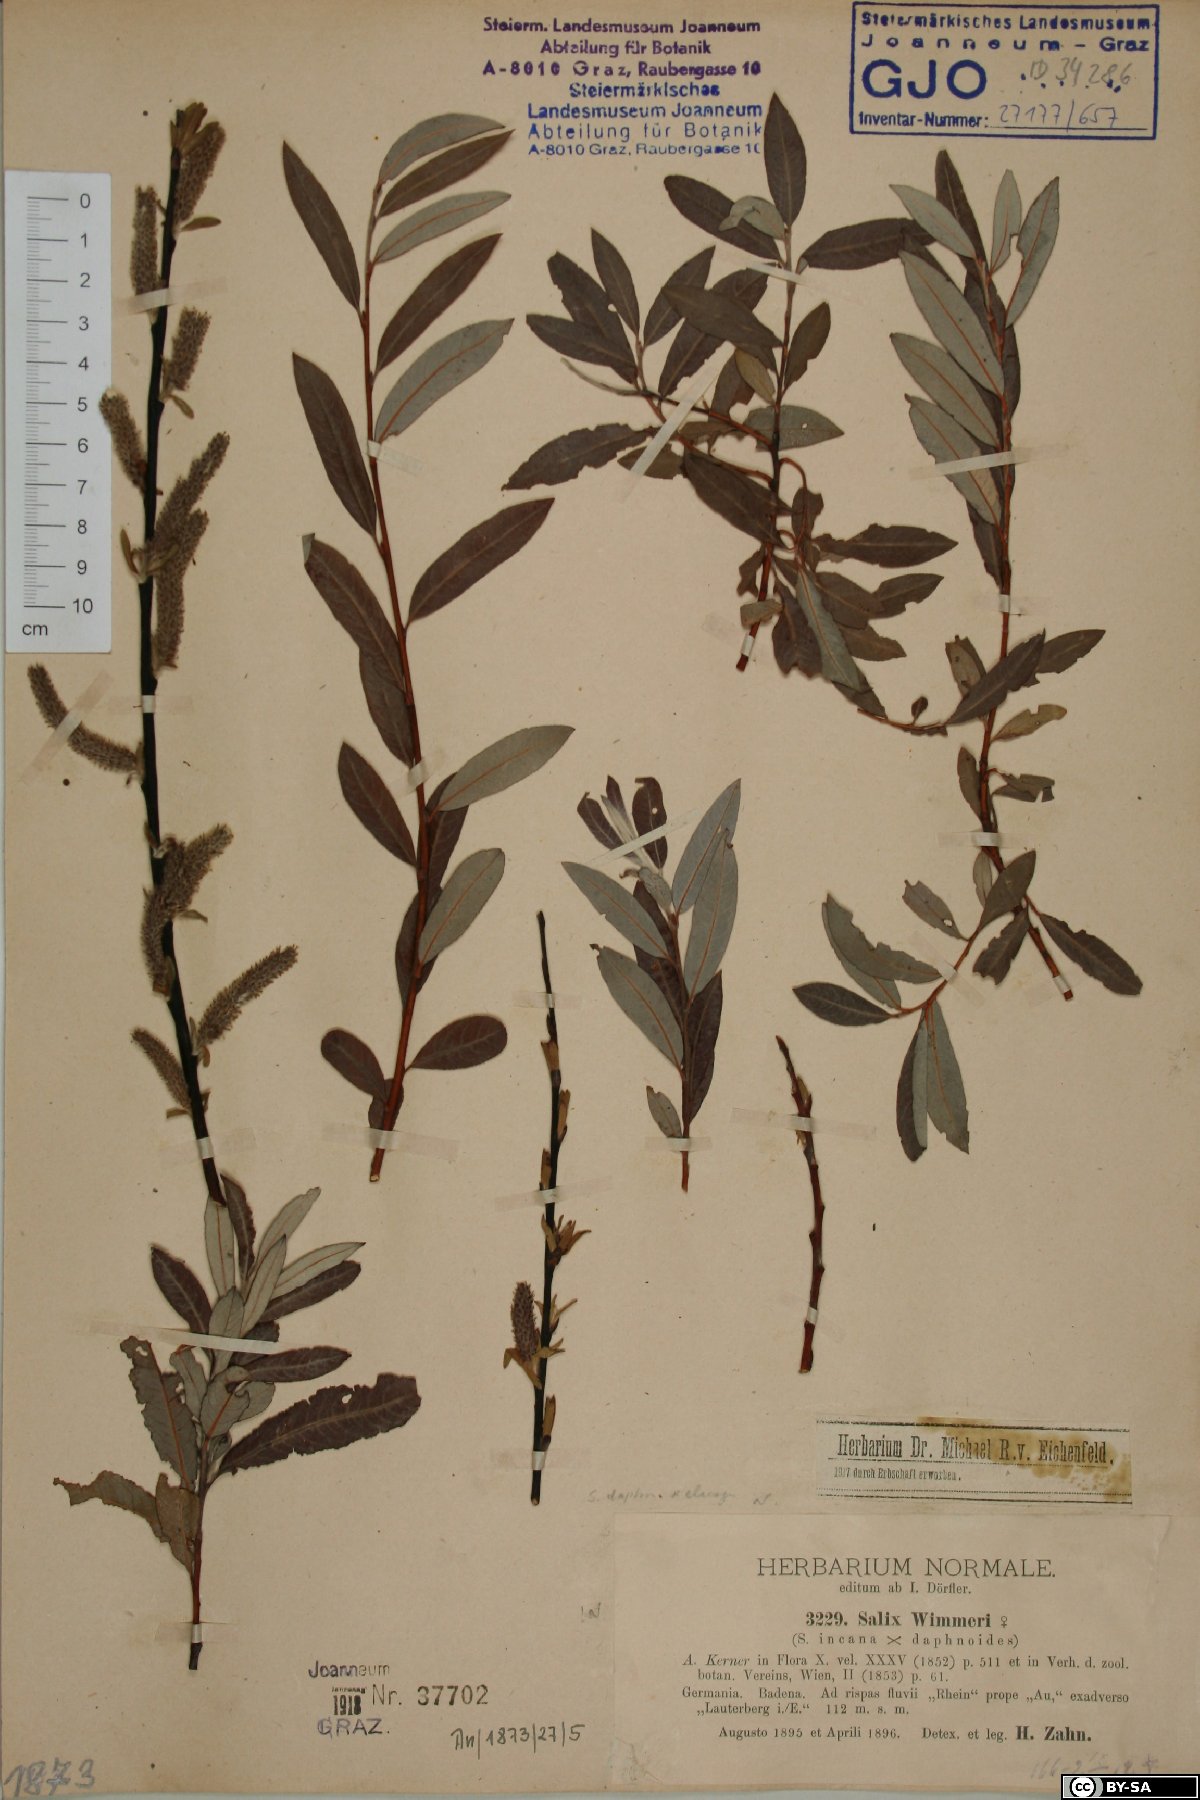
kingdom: Plantae
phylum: Tracheophyta
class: Magnoliopsida
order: Malpighiales
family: Salicaceae
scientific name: Salicaceae
